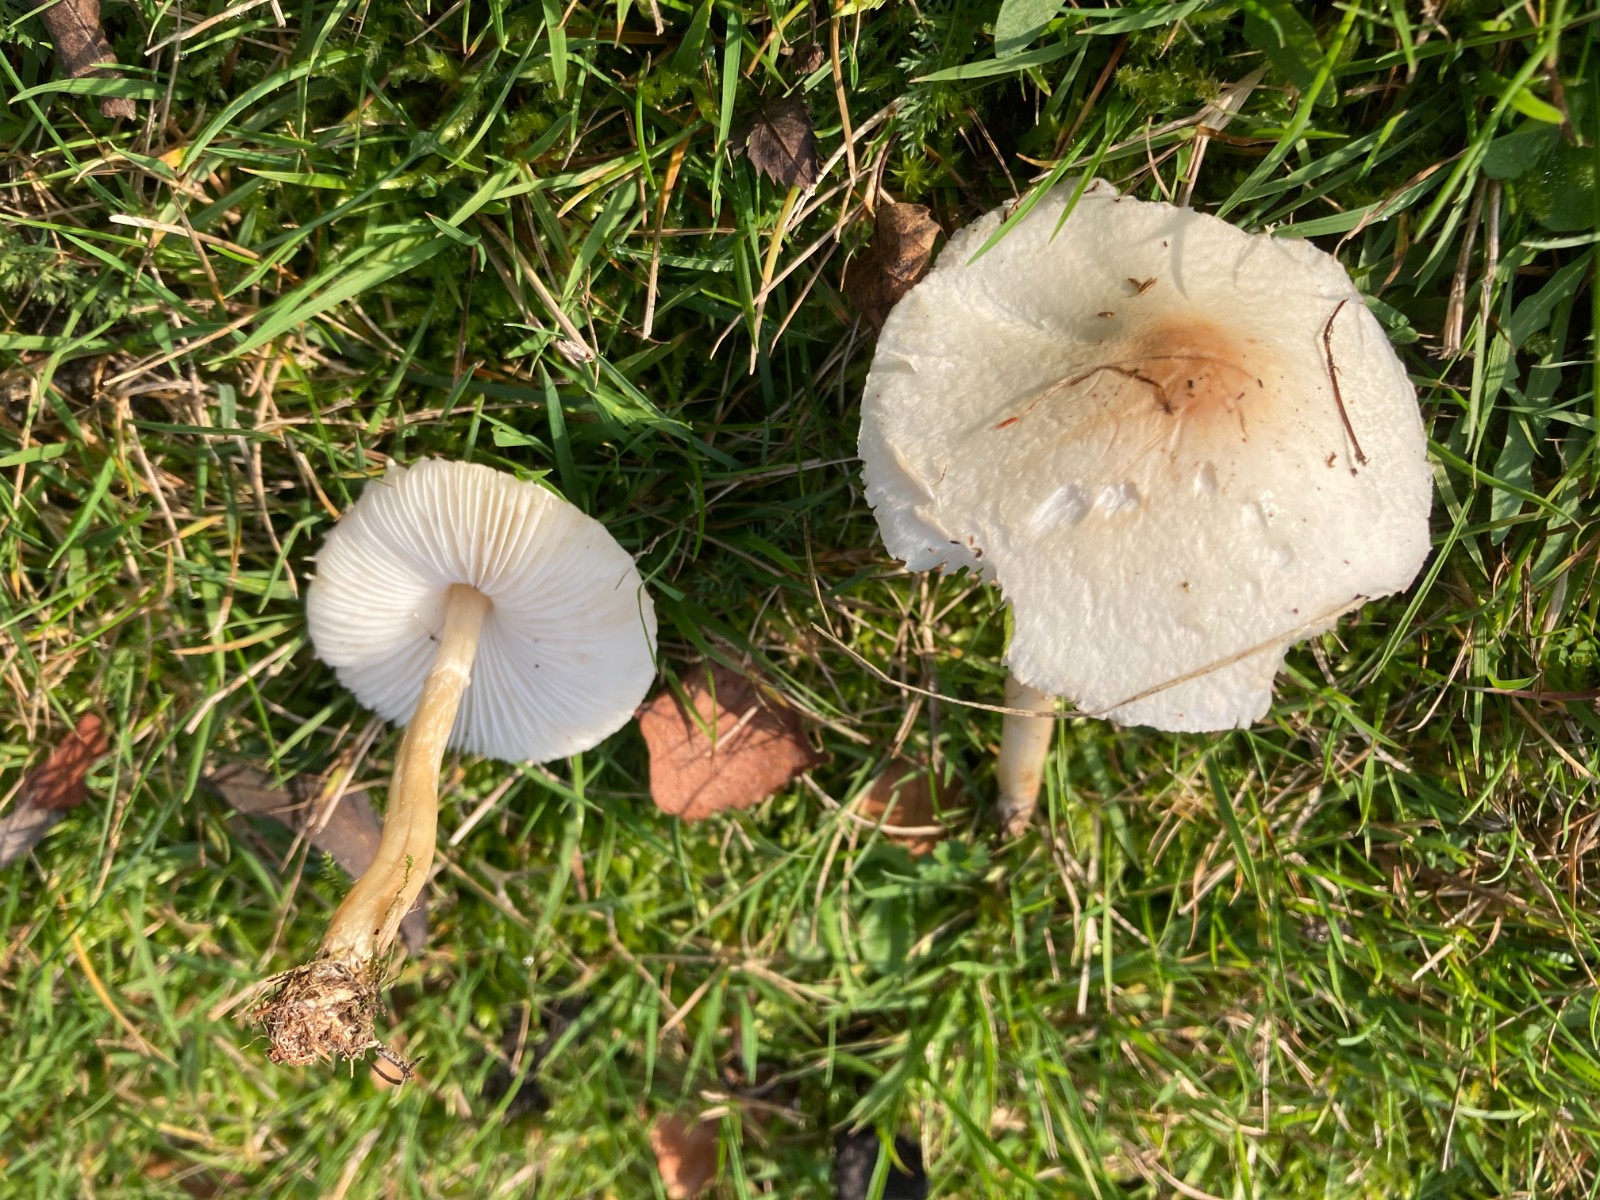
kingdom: Fungi
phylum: Basidiomycota
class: Agaricomycetes
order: Agaricales
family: Agaricaceae
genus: Lepiota
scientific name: Lepiota erminea
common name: hvid parasolhat
